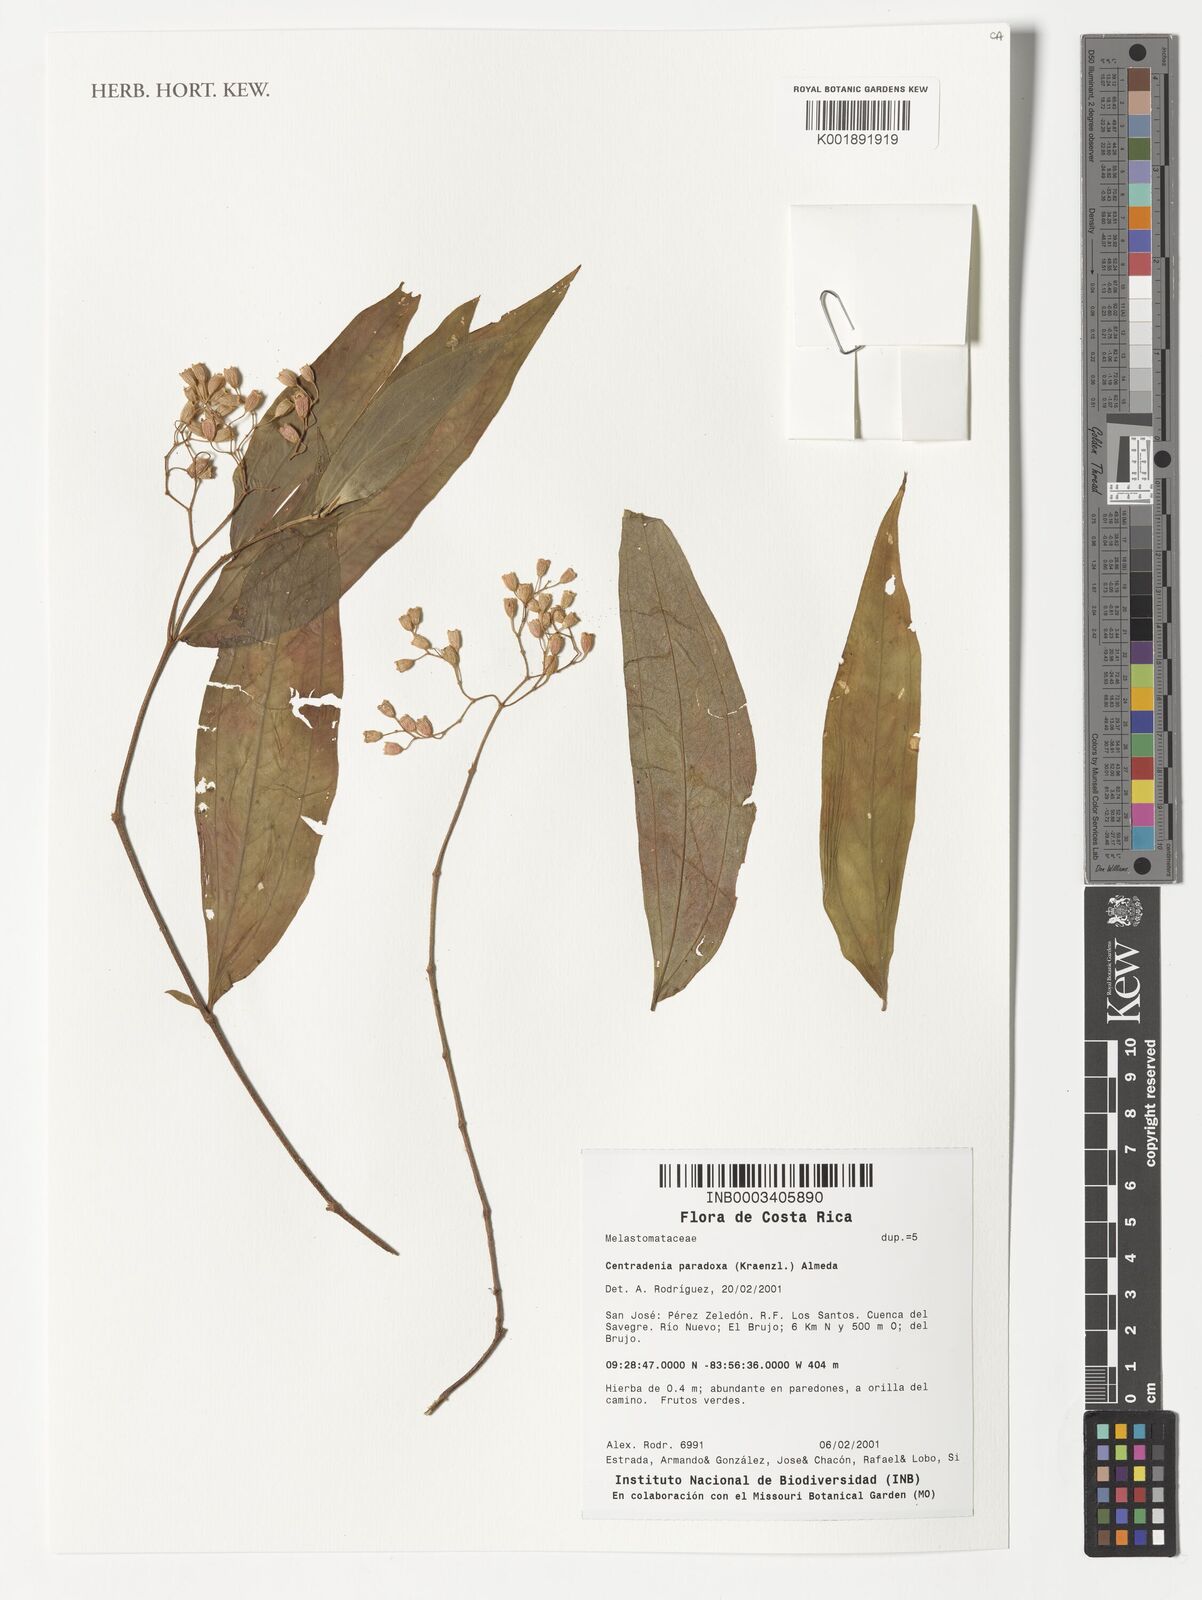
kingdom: Plantae
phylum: Tracheophyta
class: Magnoliopsida
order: Myrtales
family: Melastomataceae
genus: Centradenia
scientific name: Centradenia paradoxa
